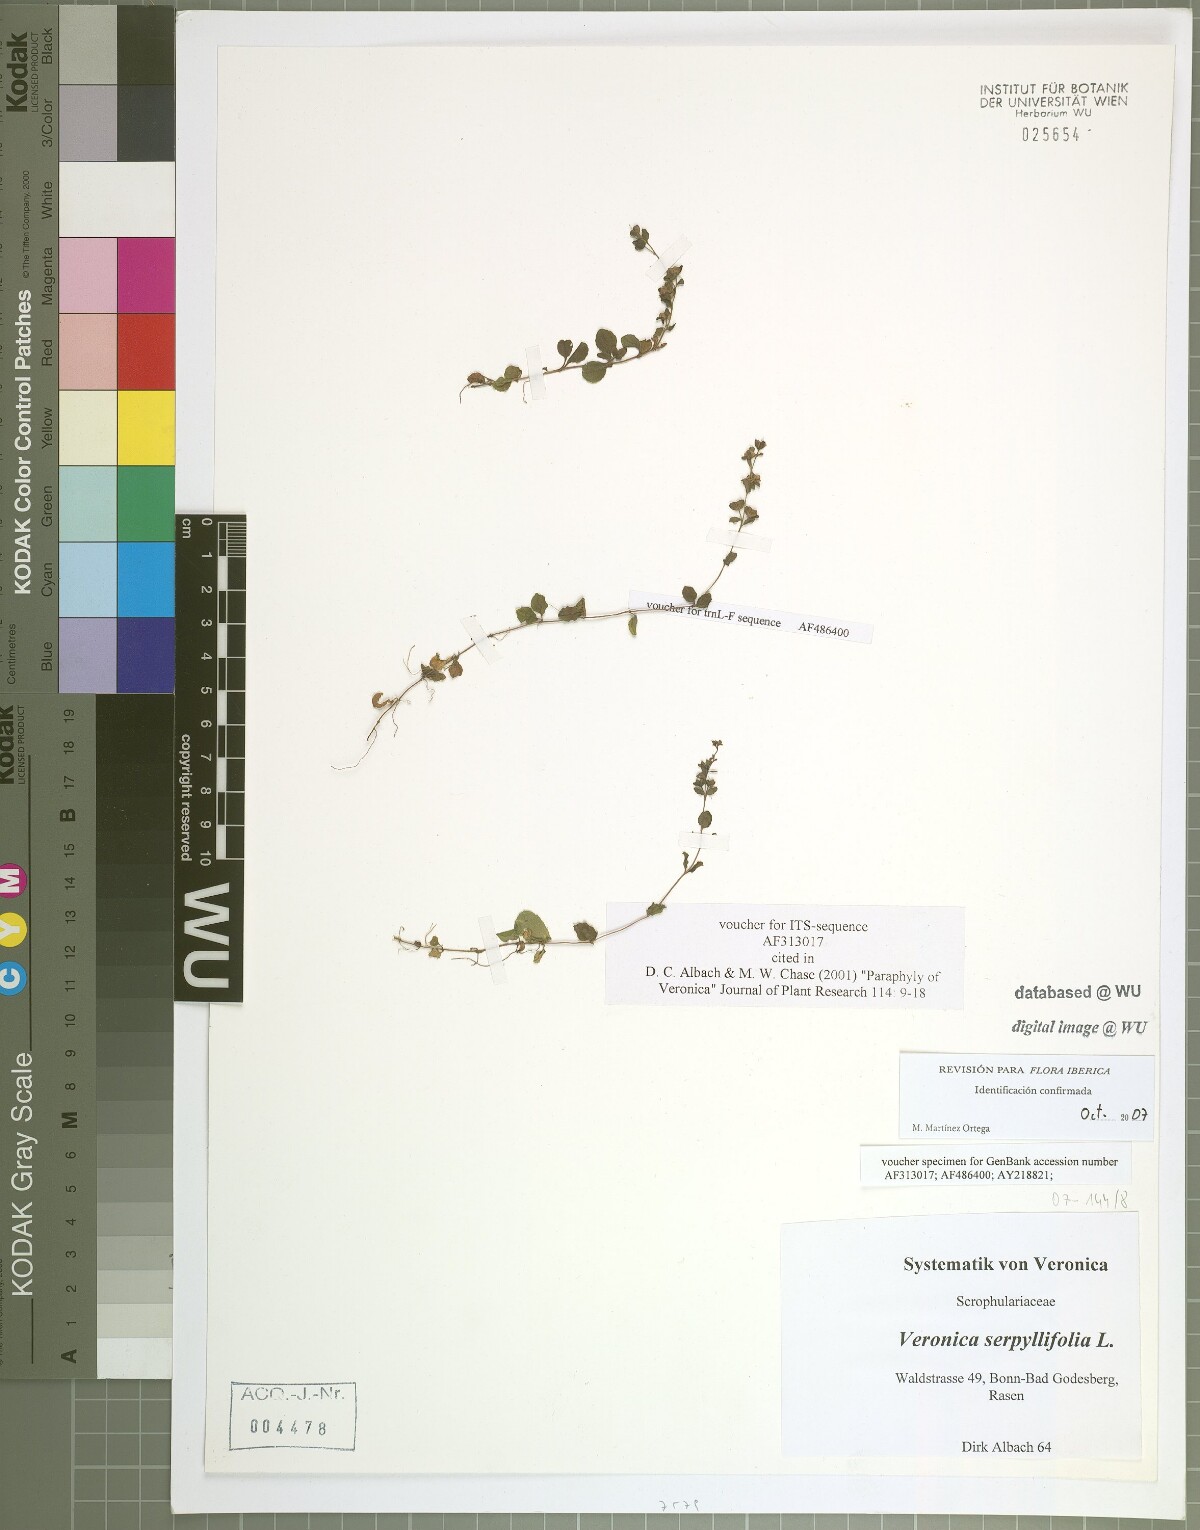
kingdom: Plantae
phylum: Tracheophyta
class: Magnoliopsida
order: Lamiales
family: Plantaginaceae
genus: Veronica
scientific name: Veronica serpyllifolia
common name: Thyme-leaved speedwell
